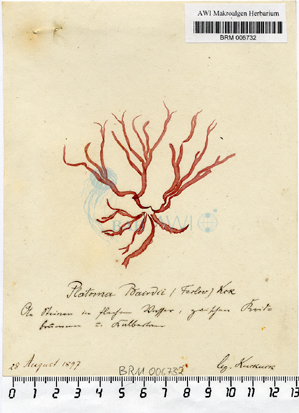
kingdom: Plantae
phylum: Rhodophyta
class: Florideophyceae
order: Halymeniales
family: Tsengiaceae
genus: Tsengia
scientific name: Tsengia bairdii
